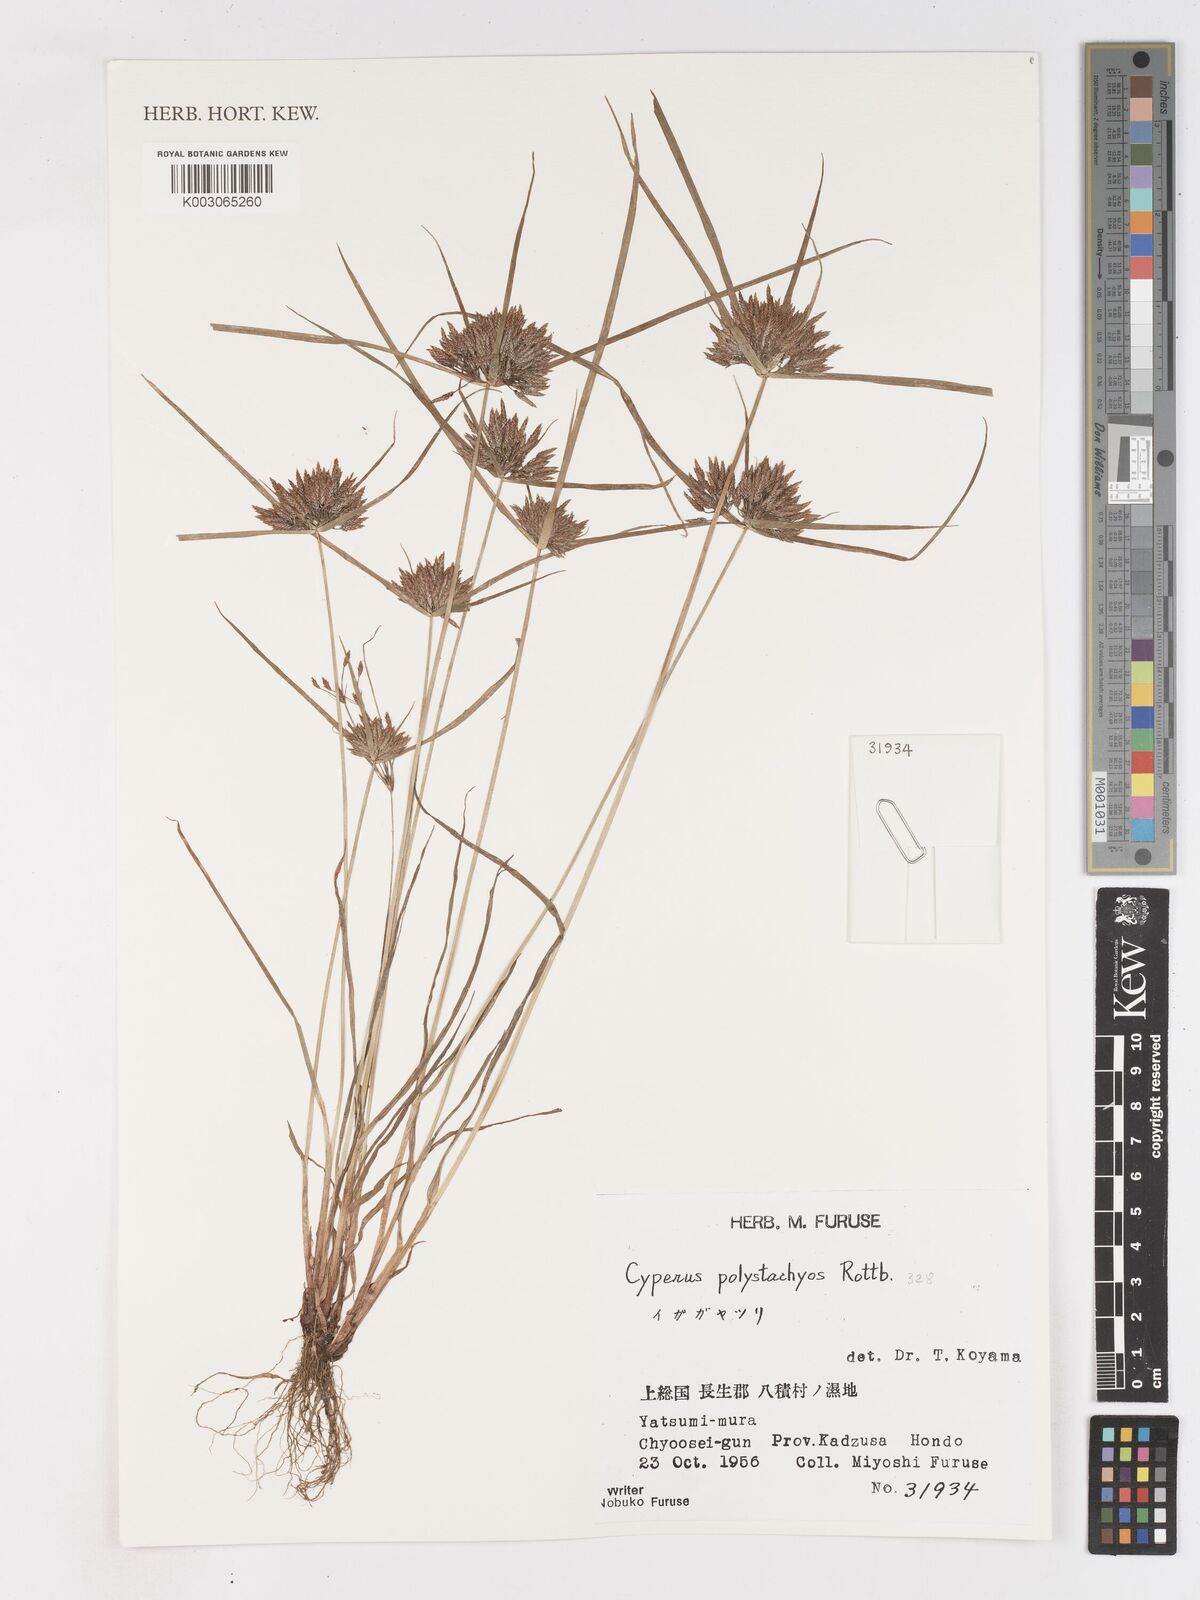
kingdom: Plantae
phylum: Tracheophyta
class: Liliopsida
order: Poales
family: Cyperaceae
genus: Cyperus
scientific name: Cyperus polystachyos
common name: Bunchy flat sedge
